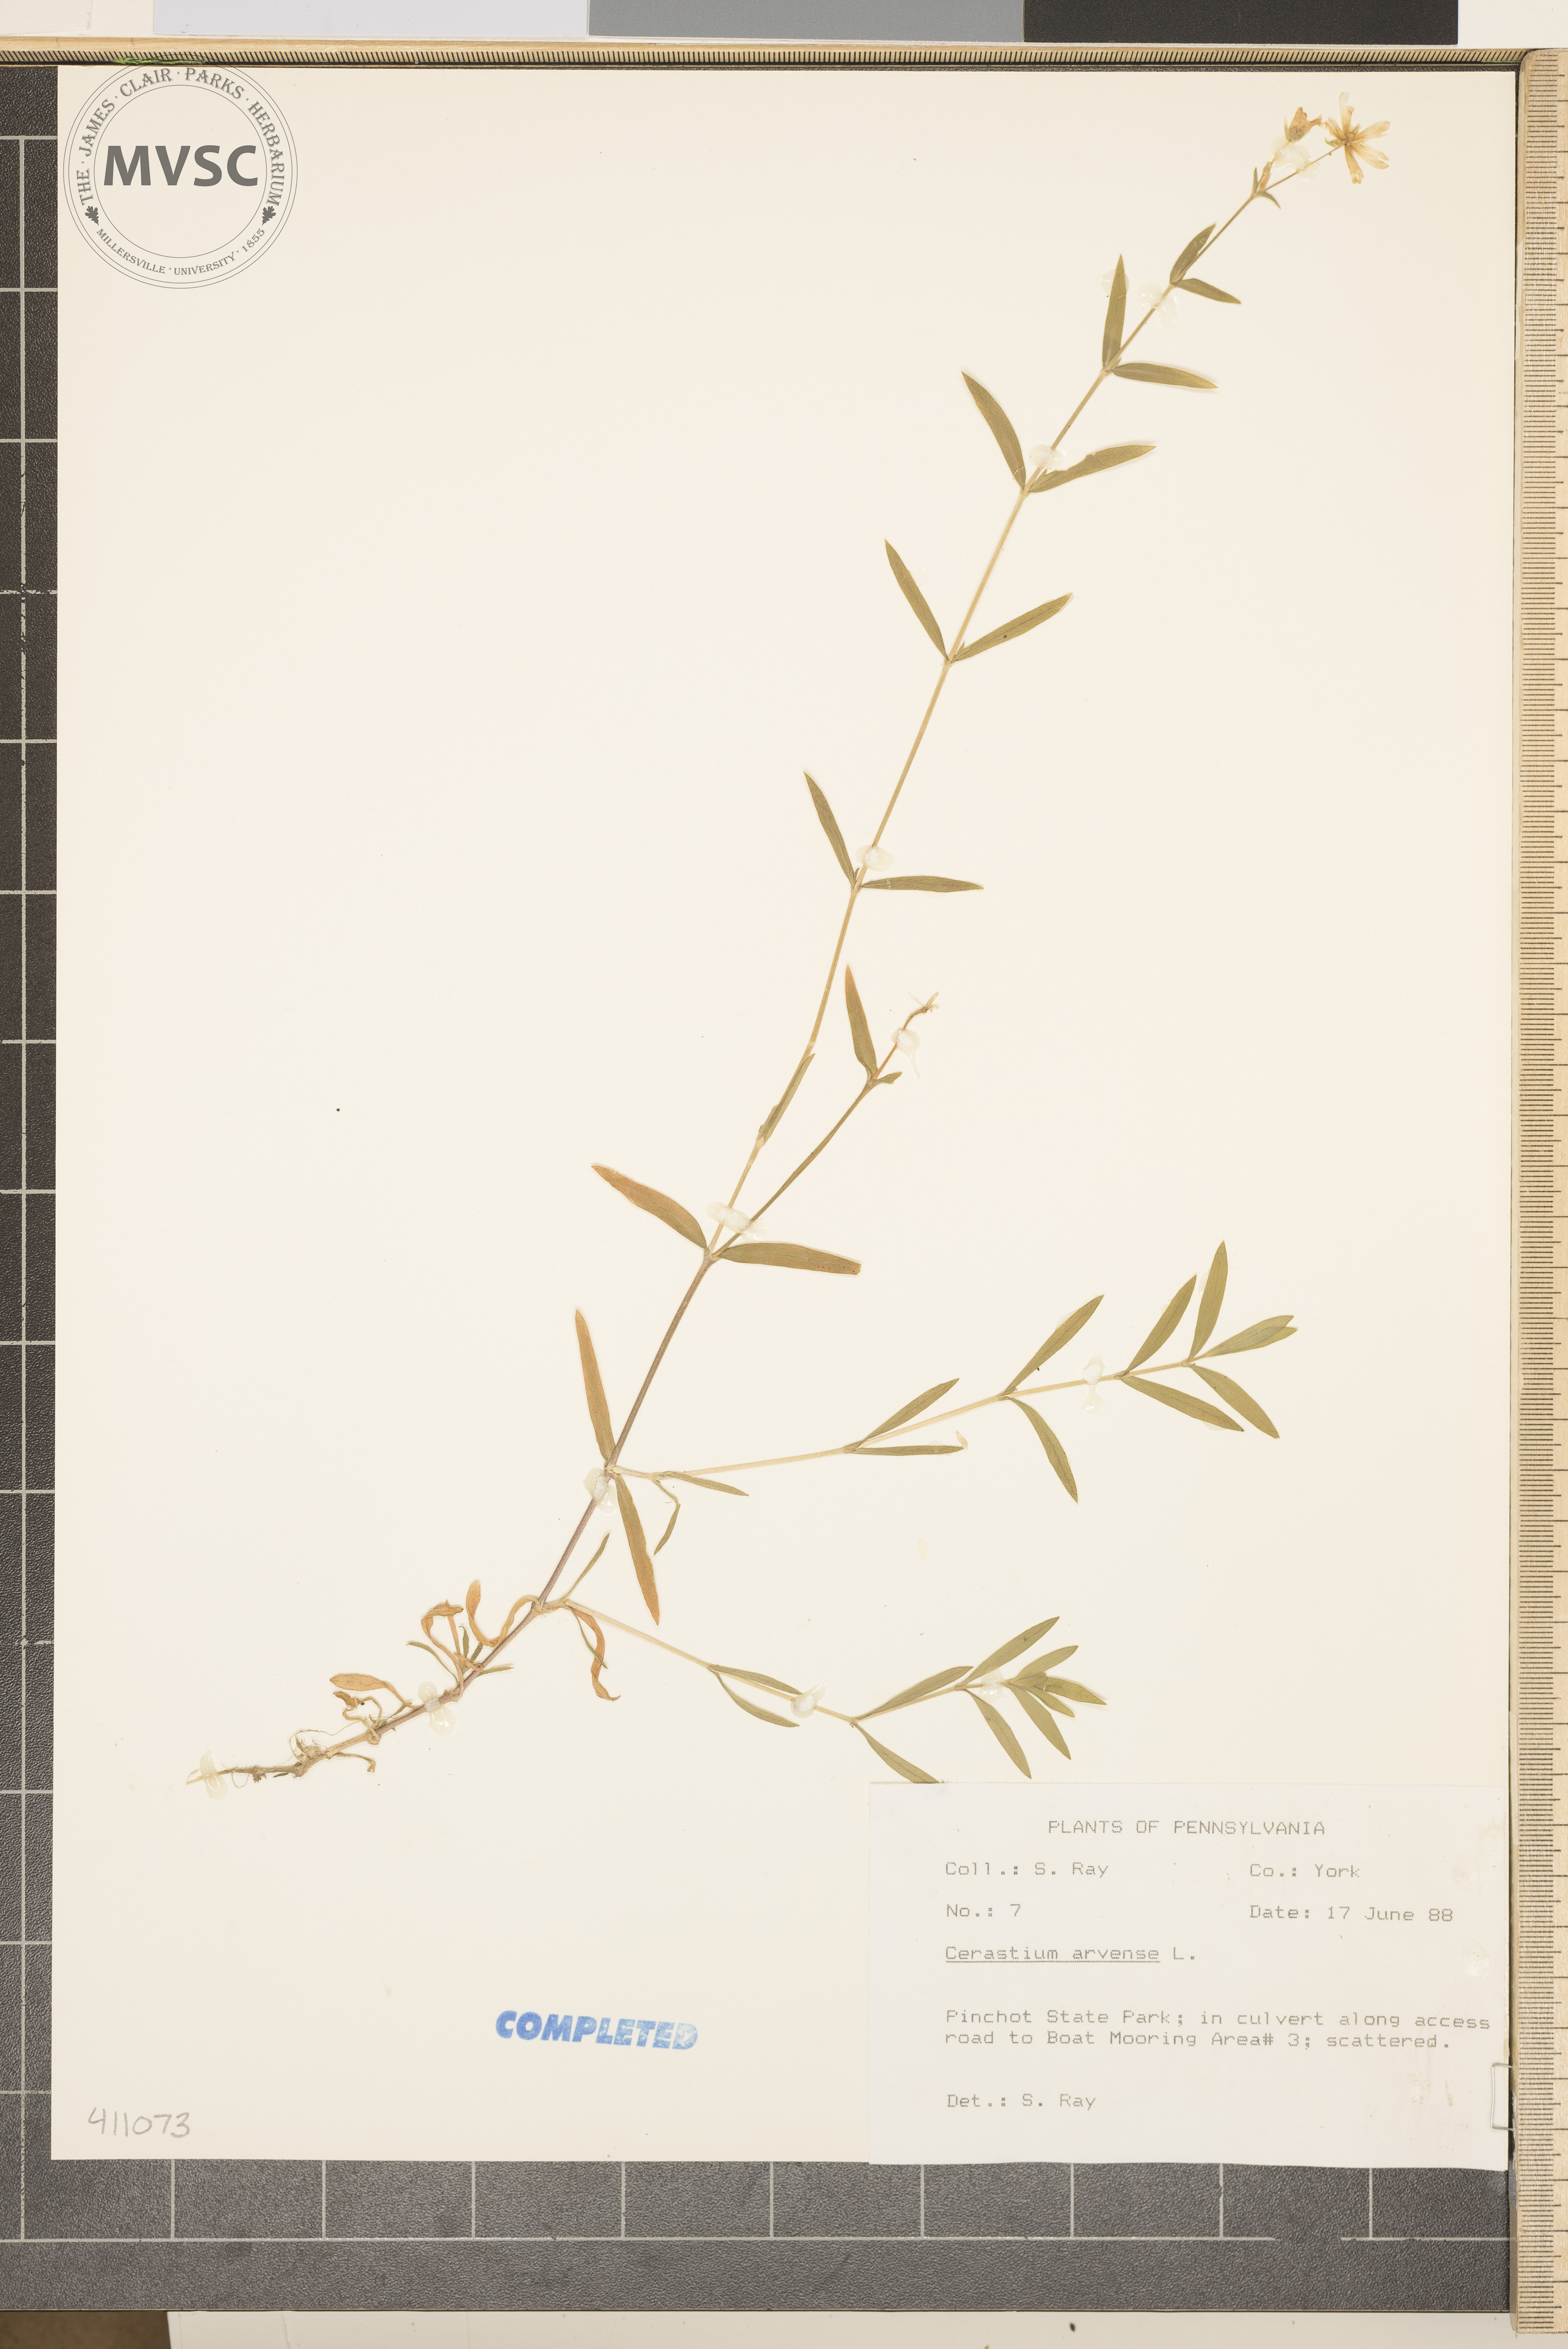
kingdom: Plantae
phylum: Tracheophyta
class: Magnoliopsida
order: Caryophyllales
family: Caryophyllaceae
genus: Cerastium
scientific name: Cerastium arvense
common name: Field mouse-ear
